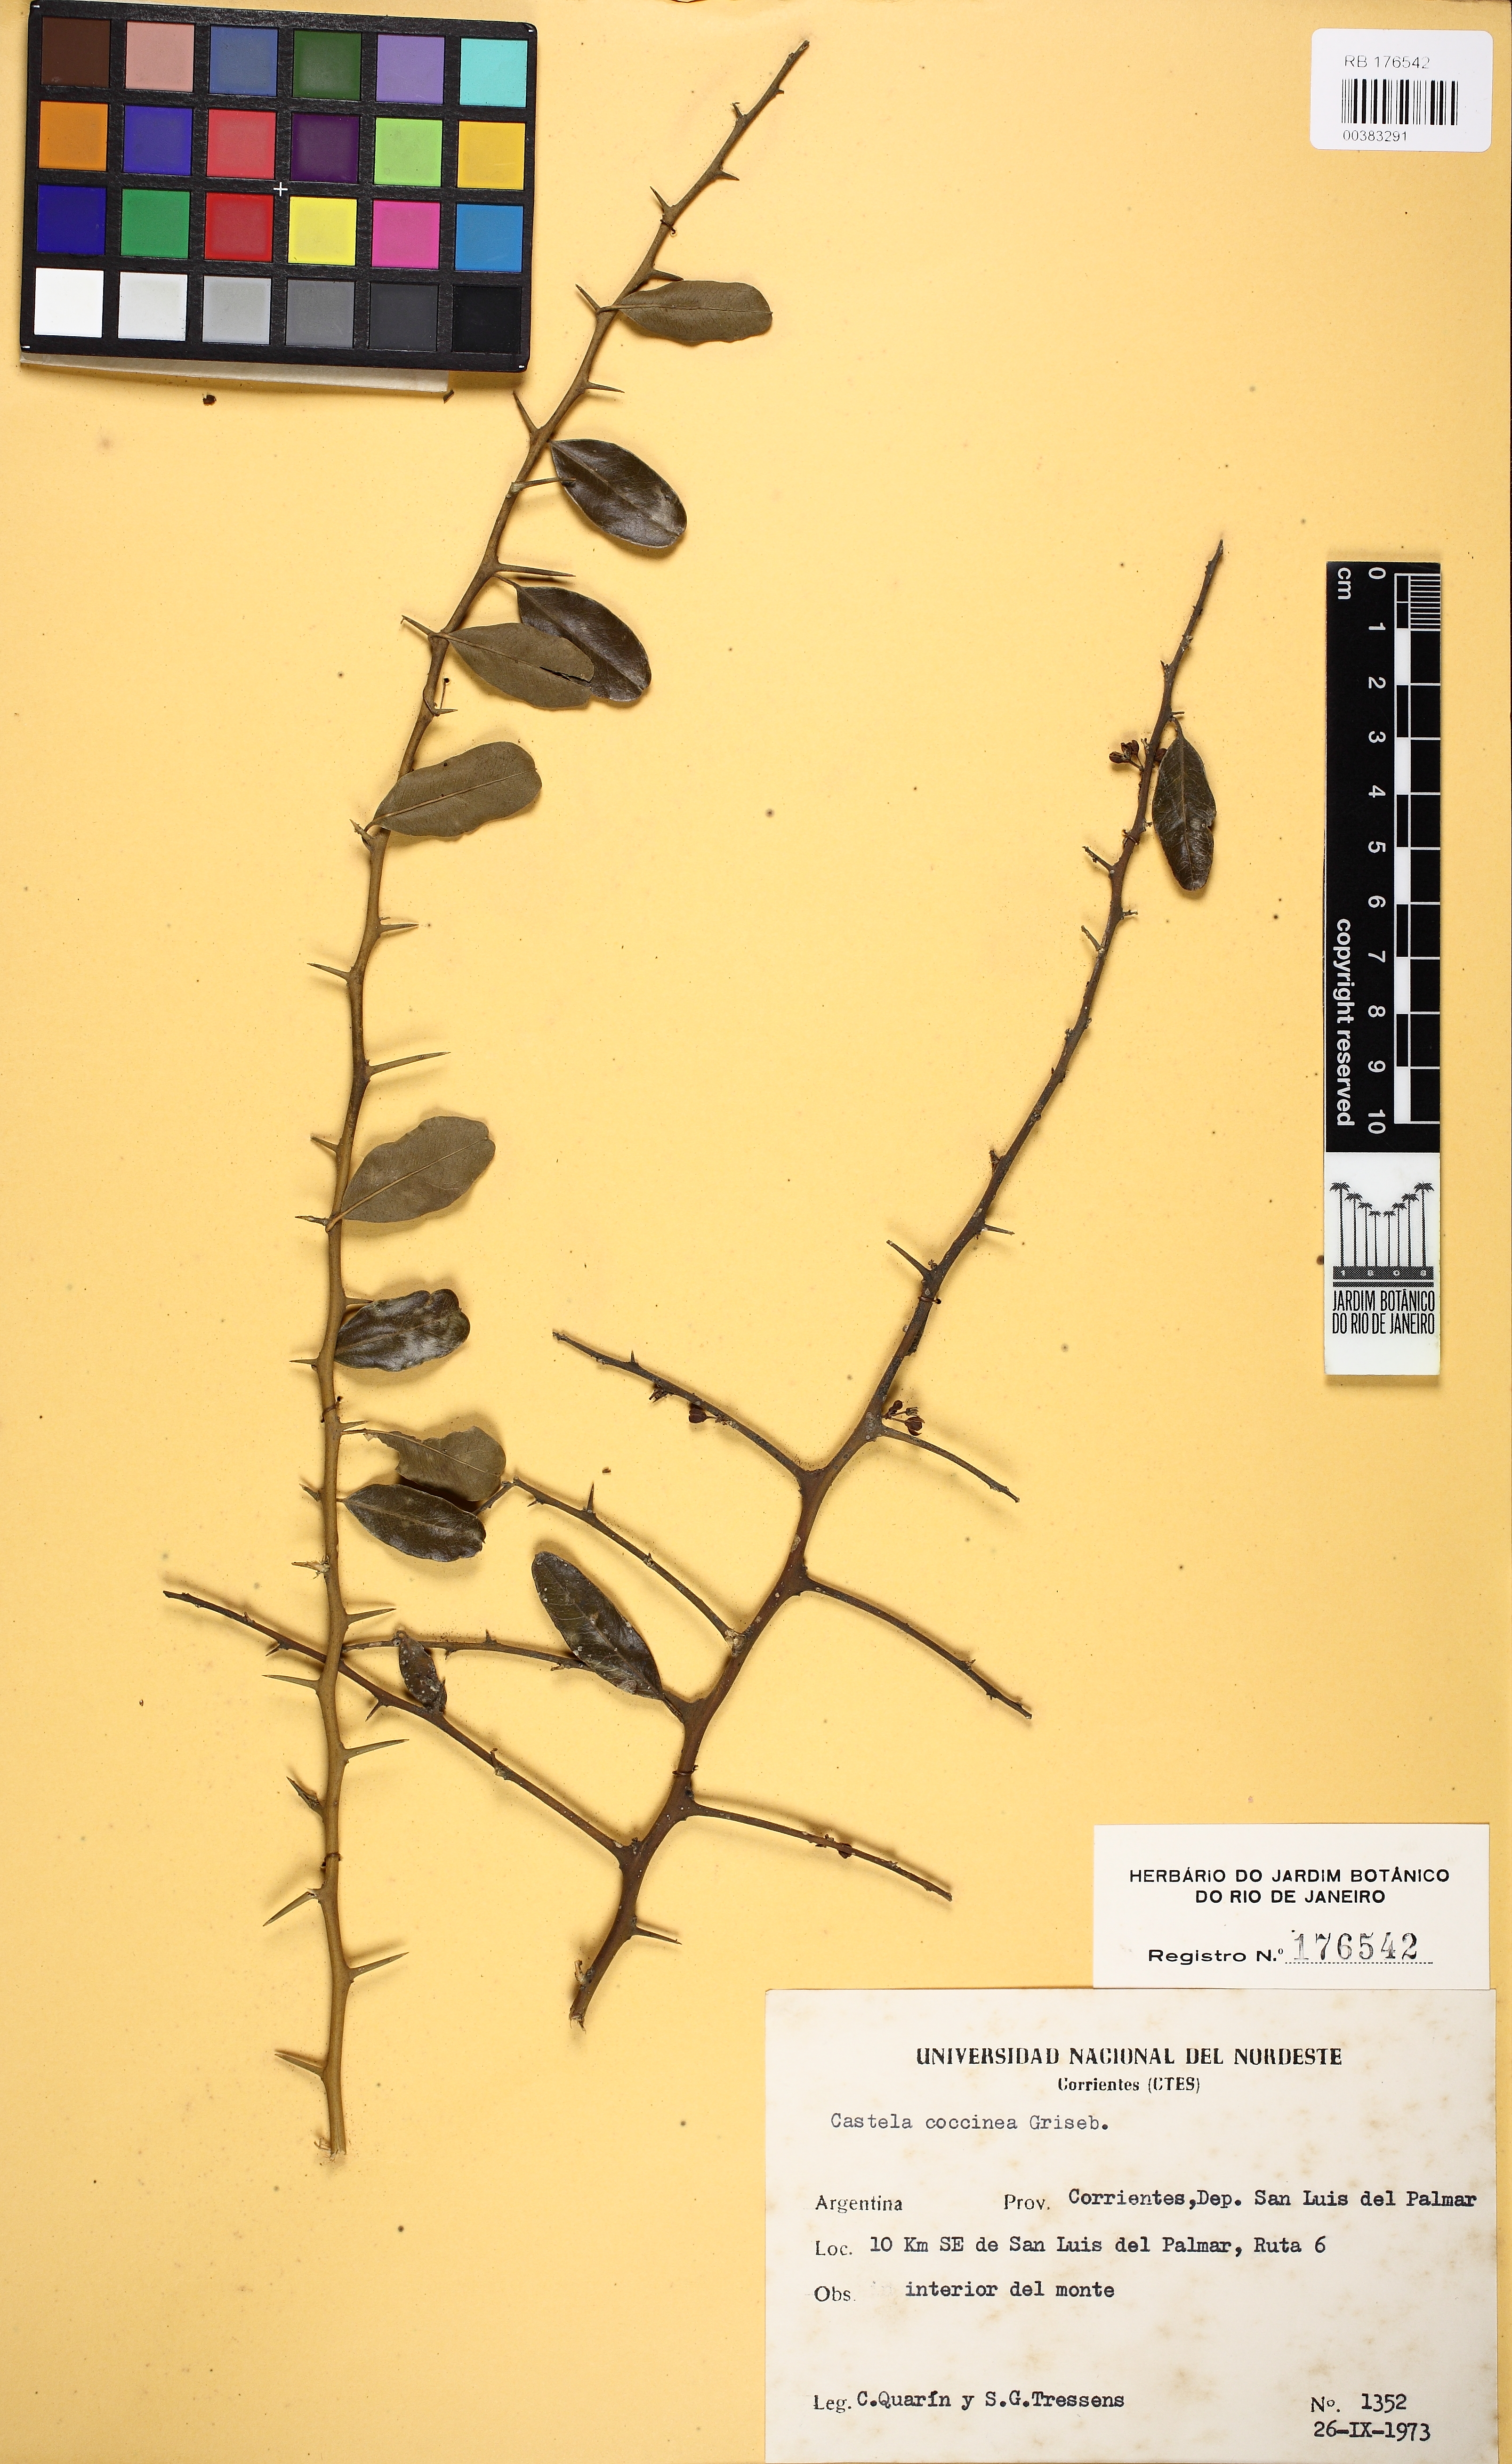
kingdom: Plantae
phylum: Tracheophyta
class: Magnoliopsida
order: Sapindales
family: Simaroubaceae
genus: Castela
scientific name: Castela coccinea
